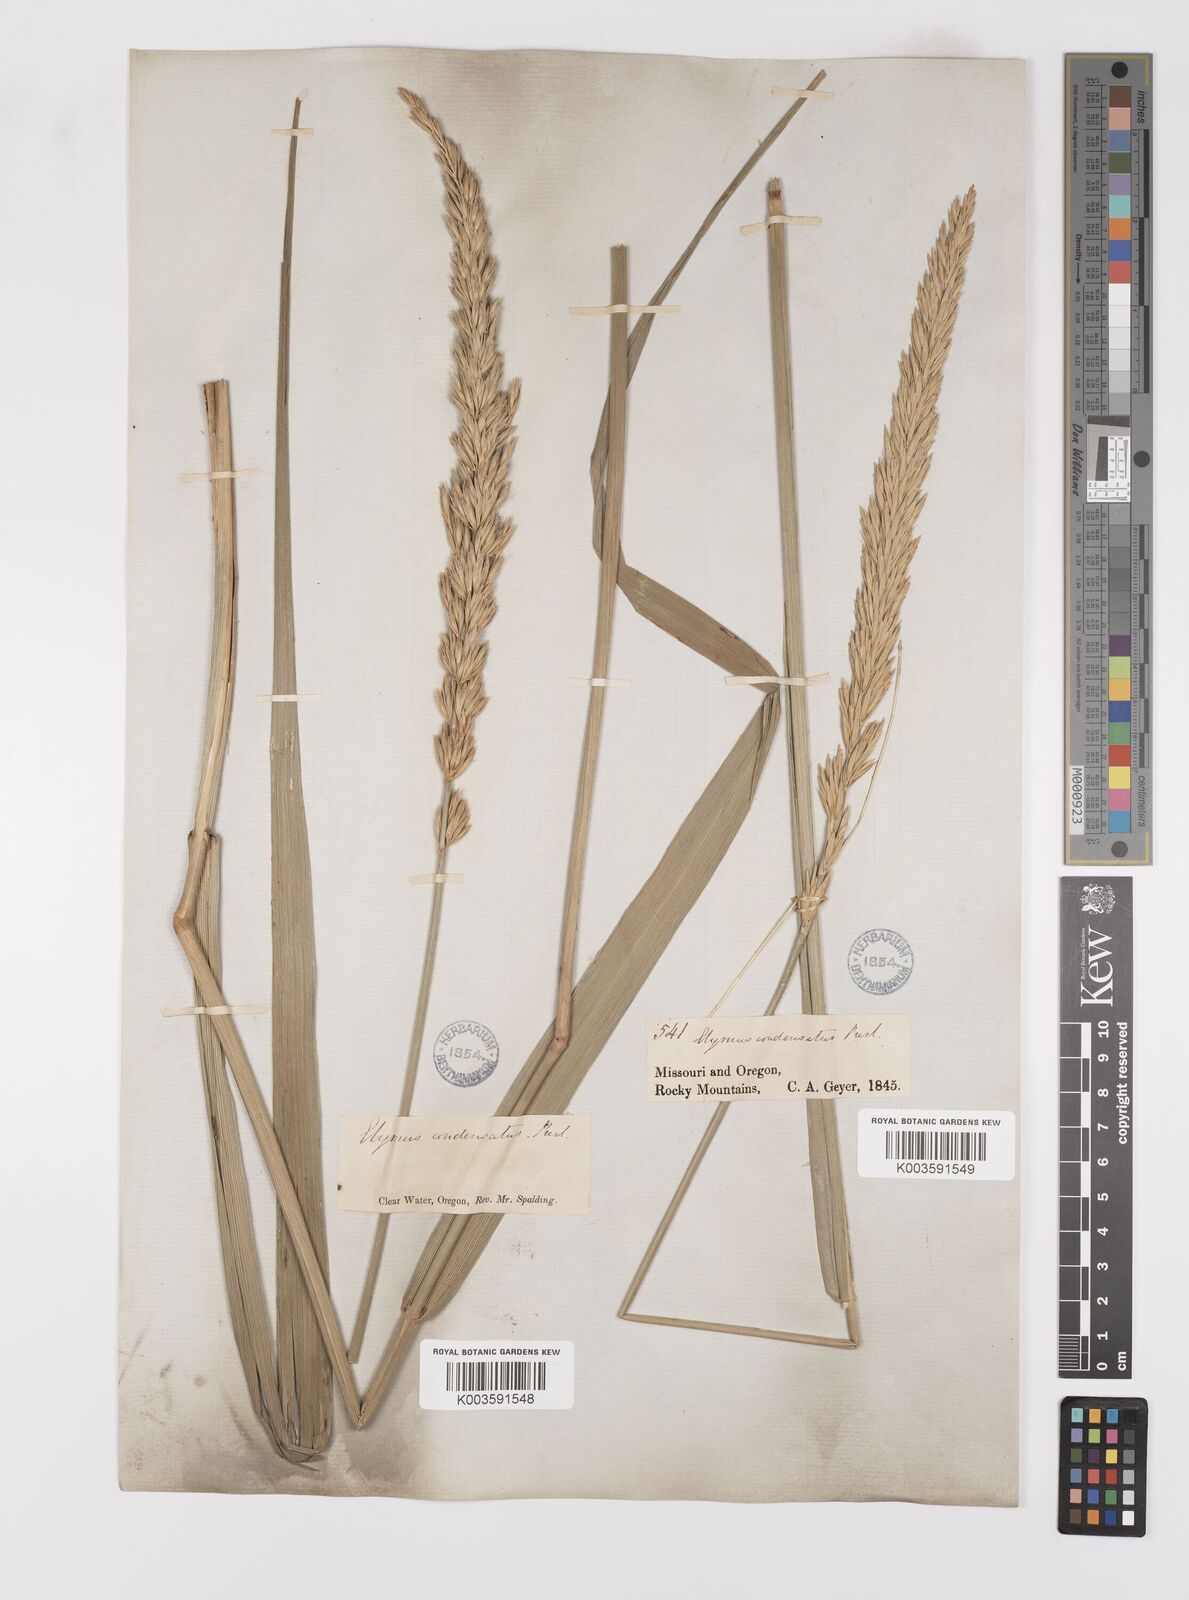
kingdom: Plantae
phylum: Tracheophyta
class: Liliopsida
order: Poales
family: Poaceae
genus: Leymus
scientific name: Leymus condensatus
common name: Giant wild rye
